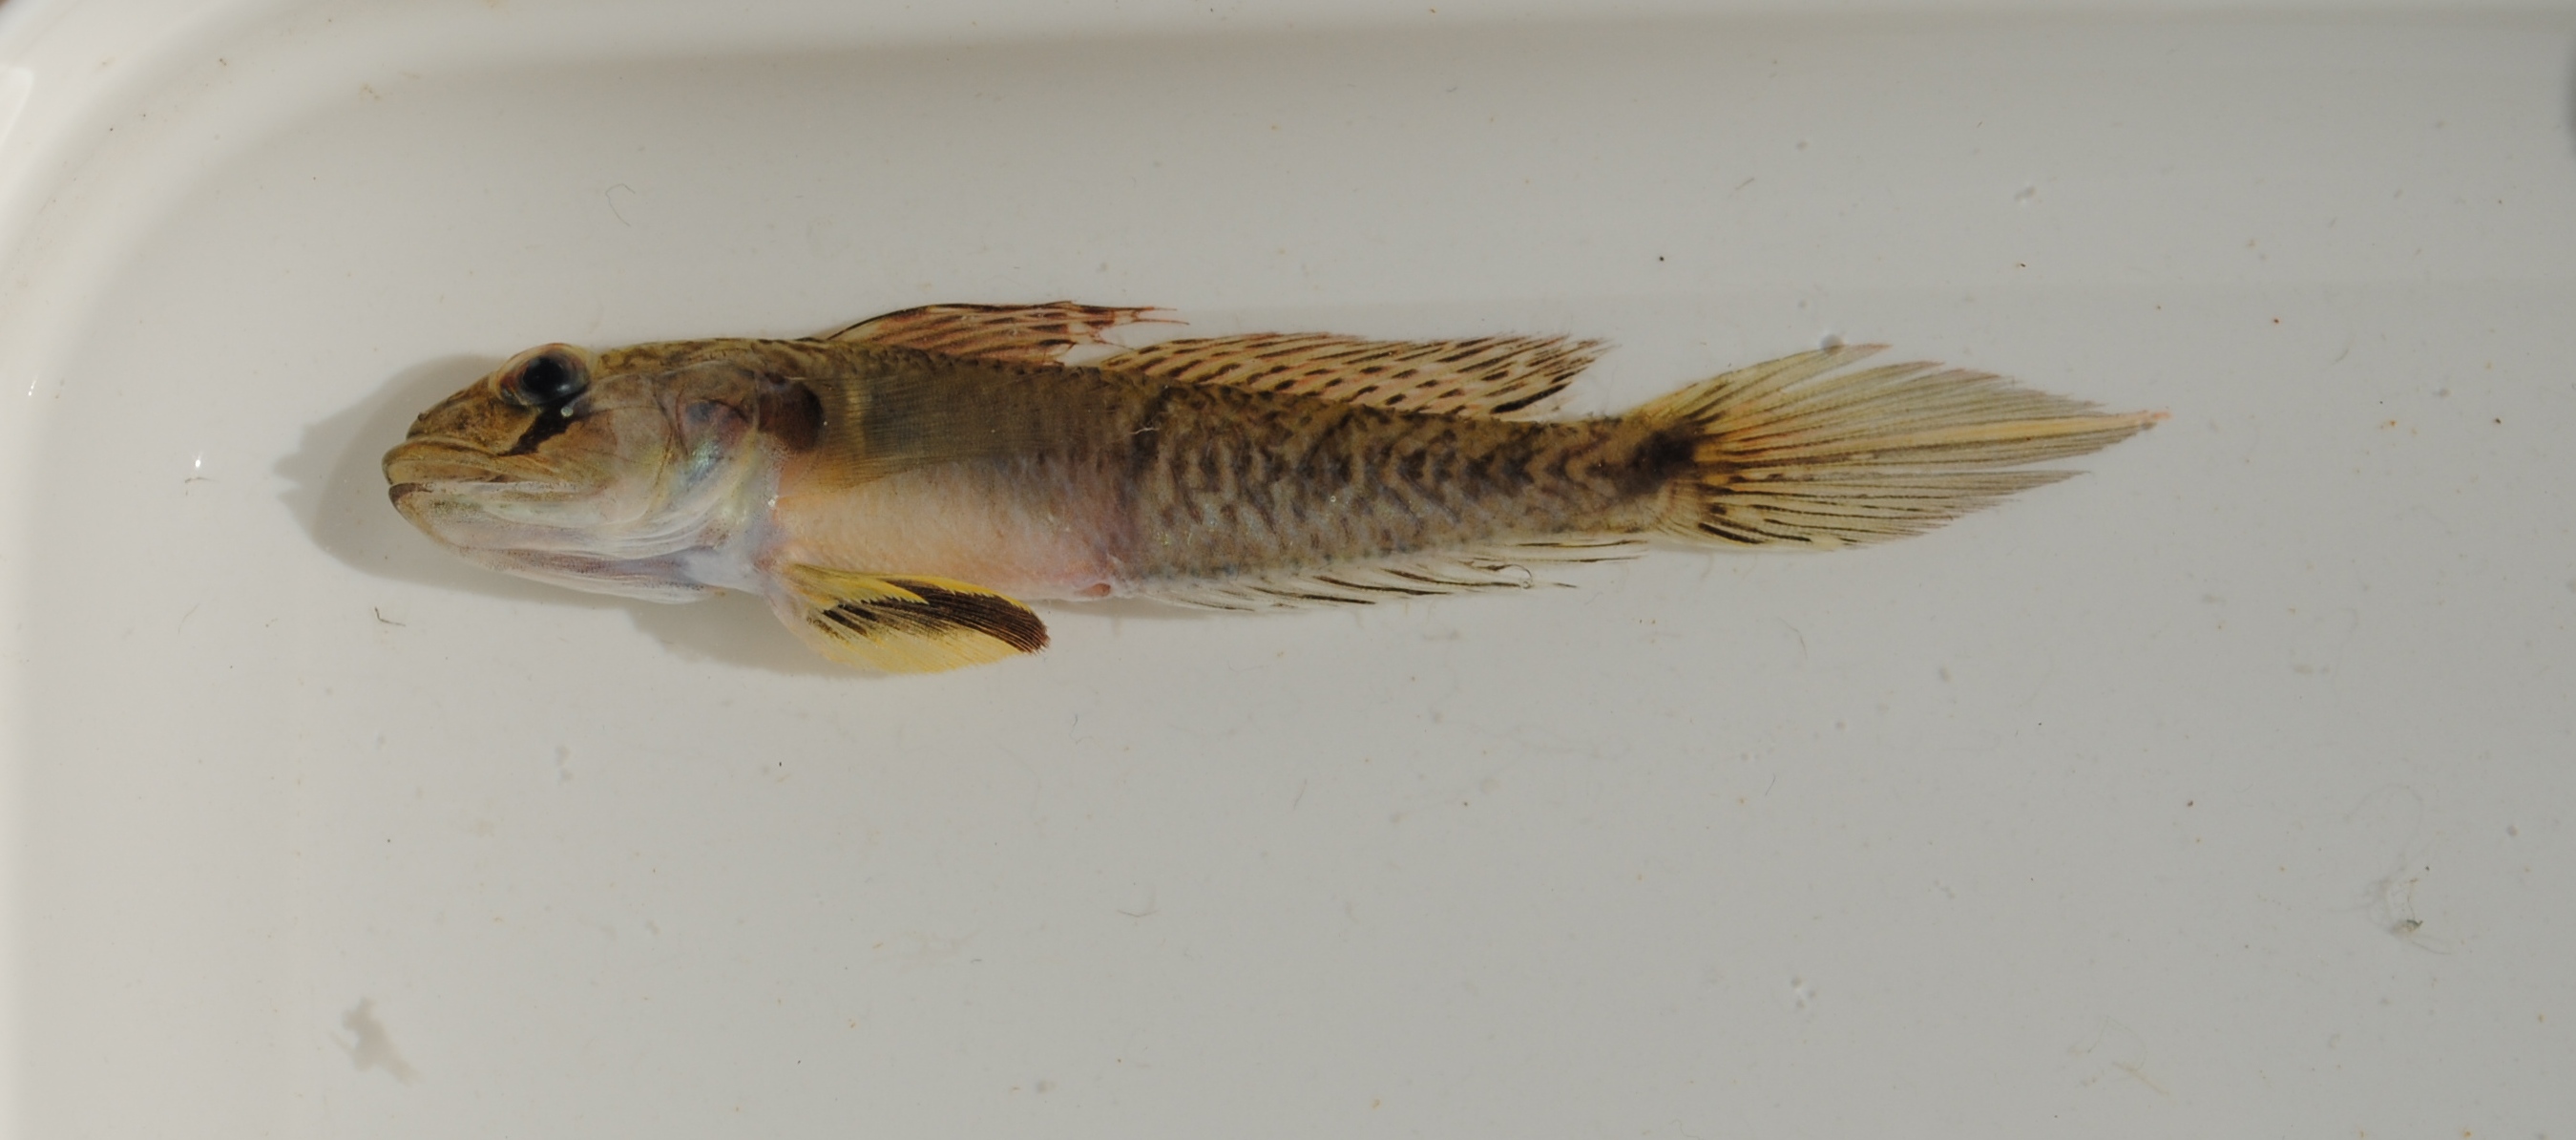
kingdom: Animalia
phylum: Chordata
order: Perciformes
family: Gobiidae
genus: Oxyurichthys
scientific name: Oxyurichthys
